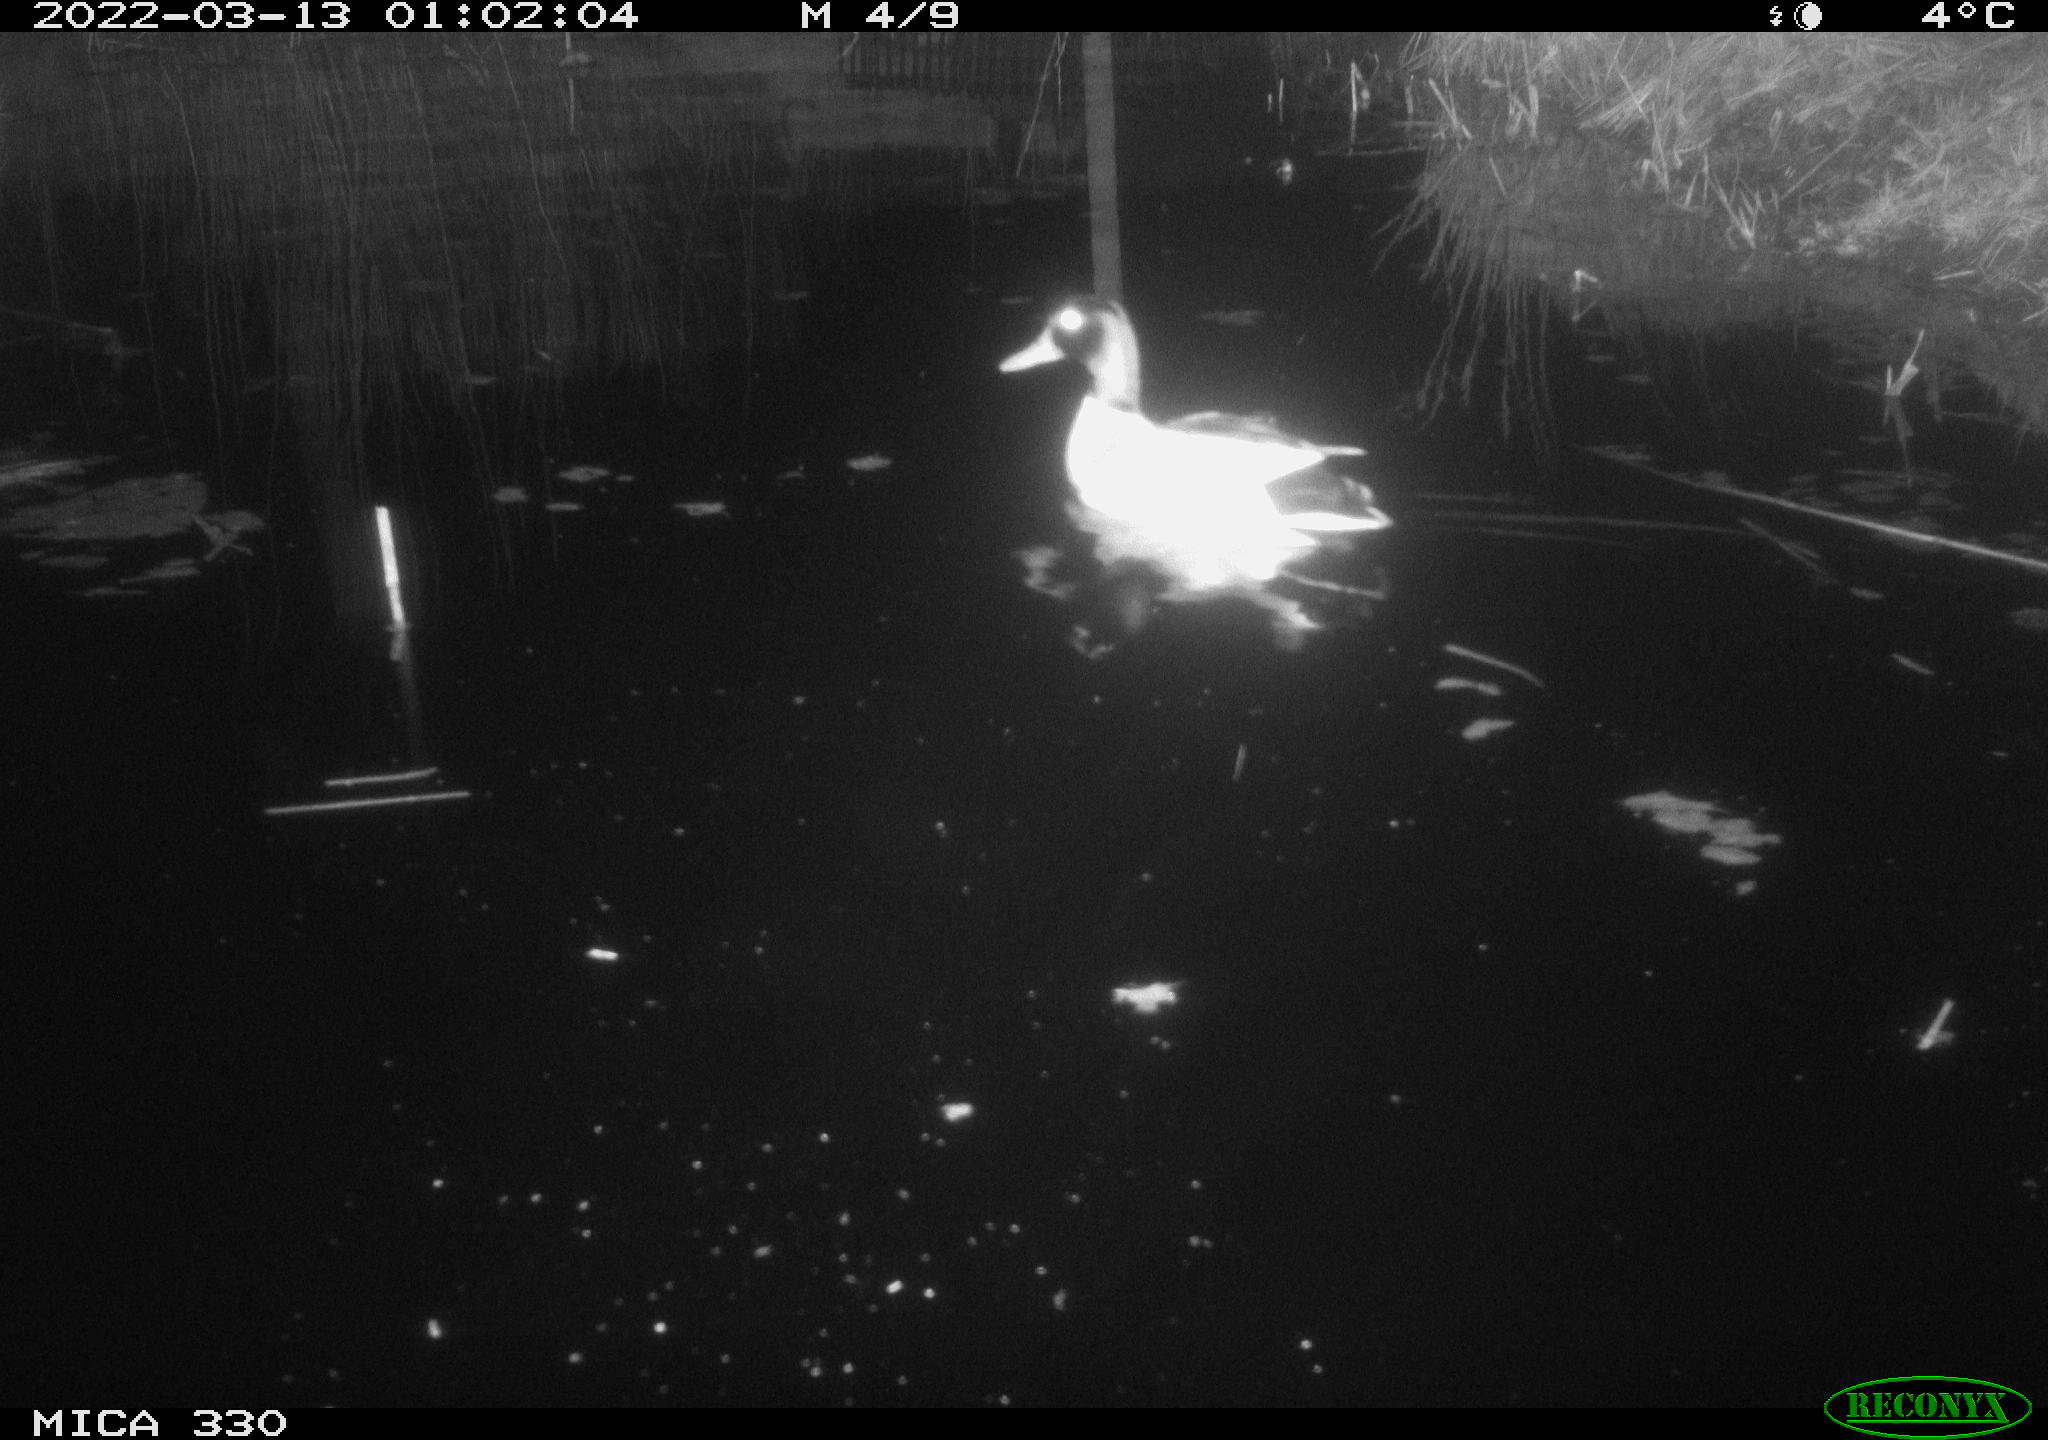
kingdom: Animalia
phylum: Chordata
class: Aves
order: Anseriformes
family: Anatidae
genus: Anas
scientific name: Anas platyrhynchos
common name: Mallard
